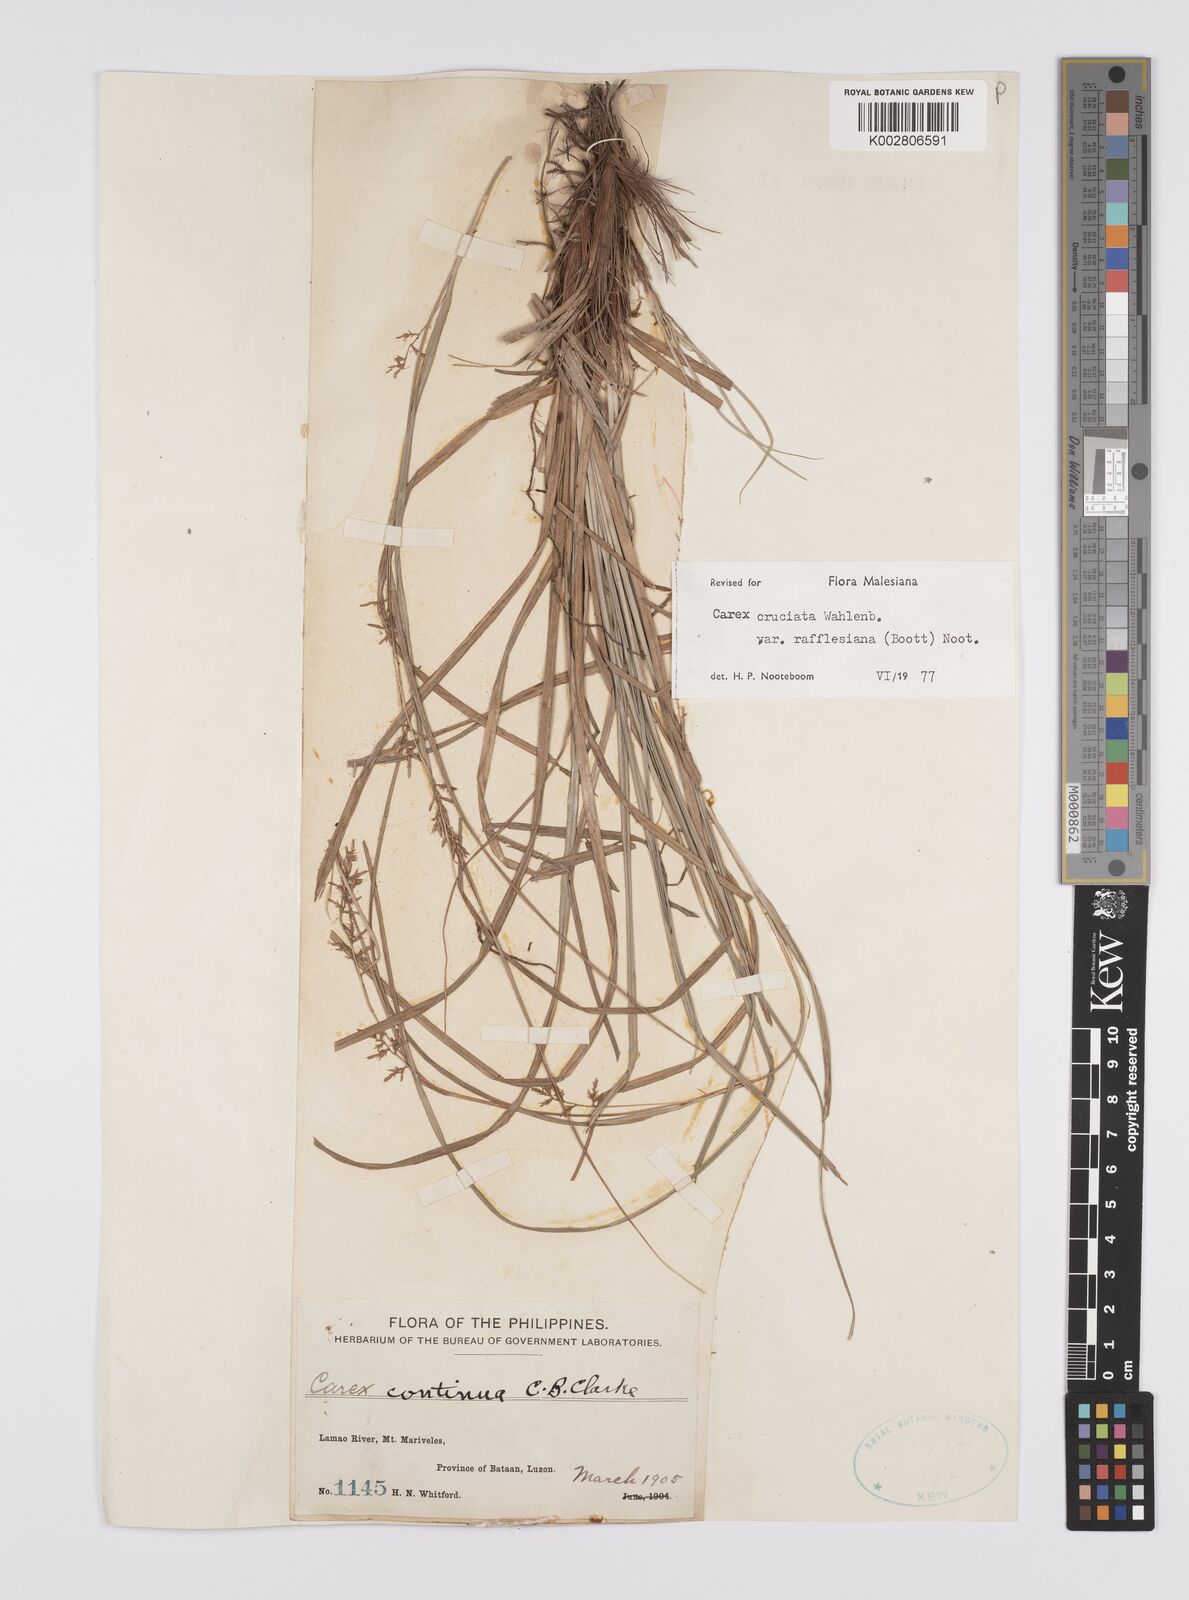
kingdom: Plantae
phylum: Tracheophyta
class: Liliopsida
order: Poales
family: Cyperaceae
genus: Carex
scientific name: Carex rafflesiana
